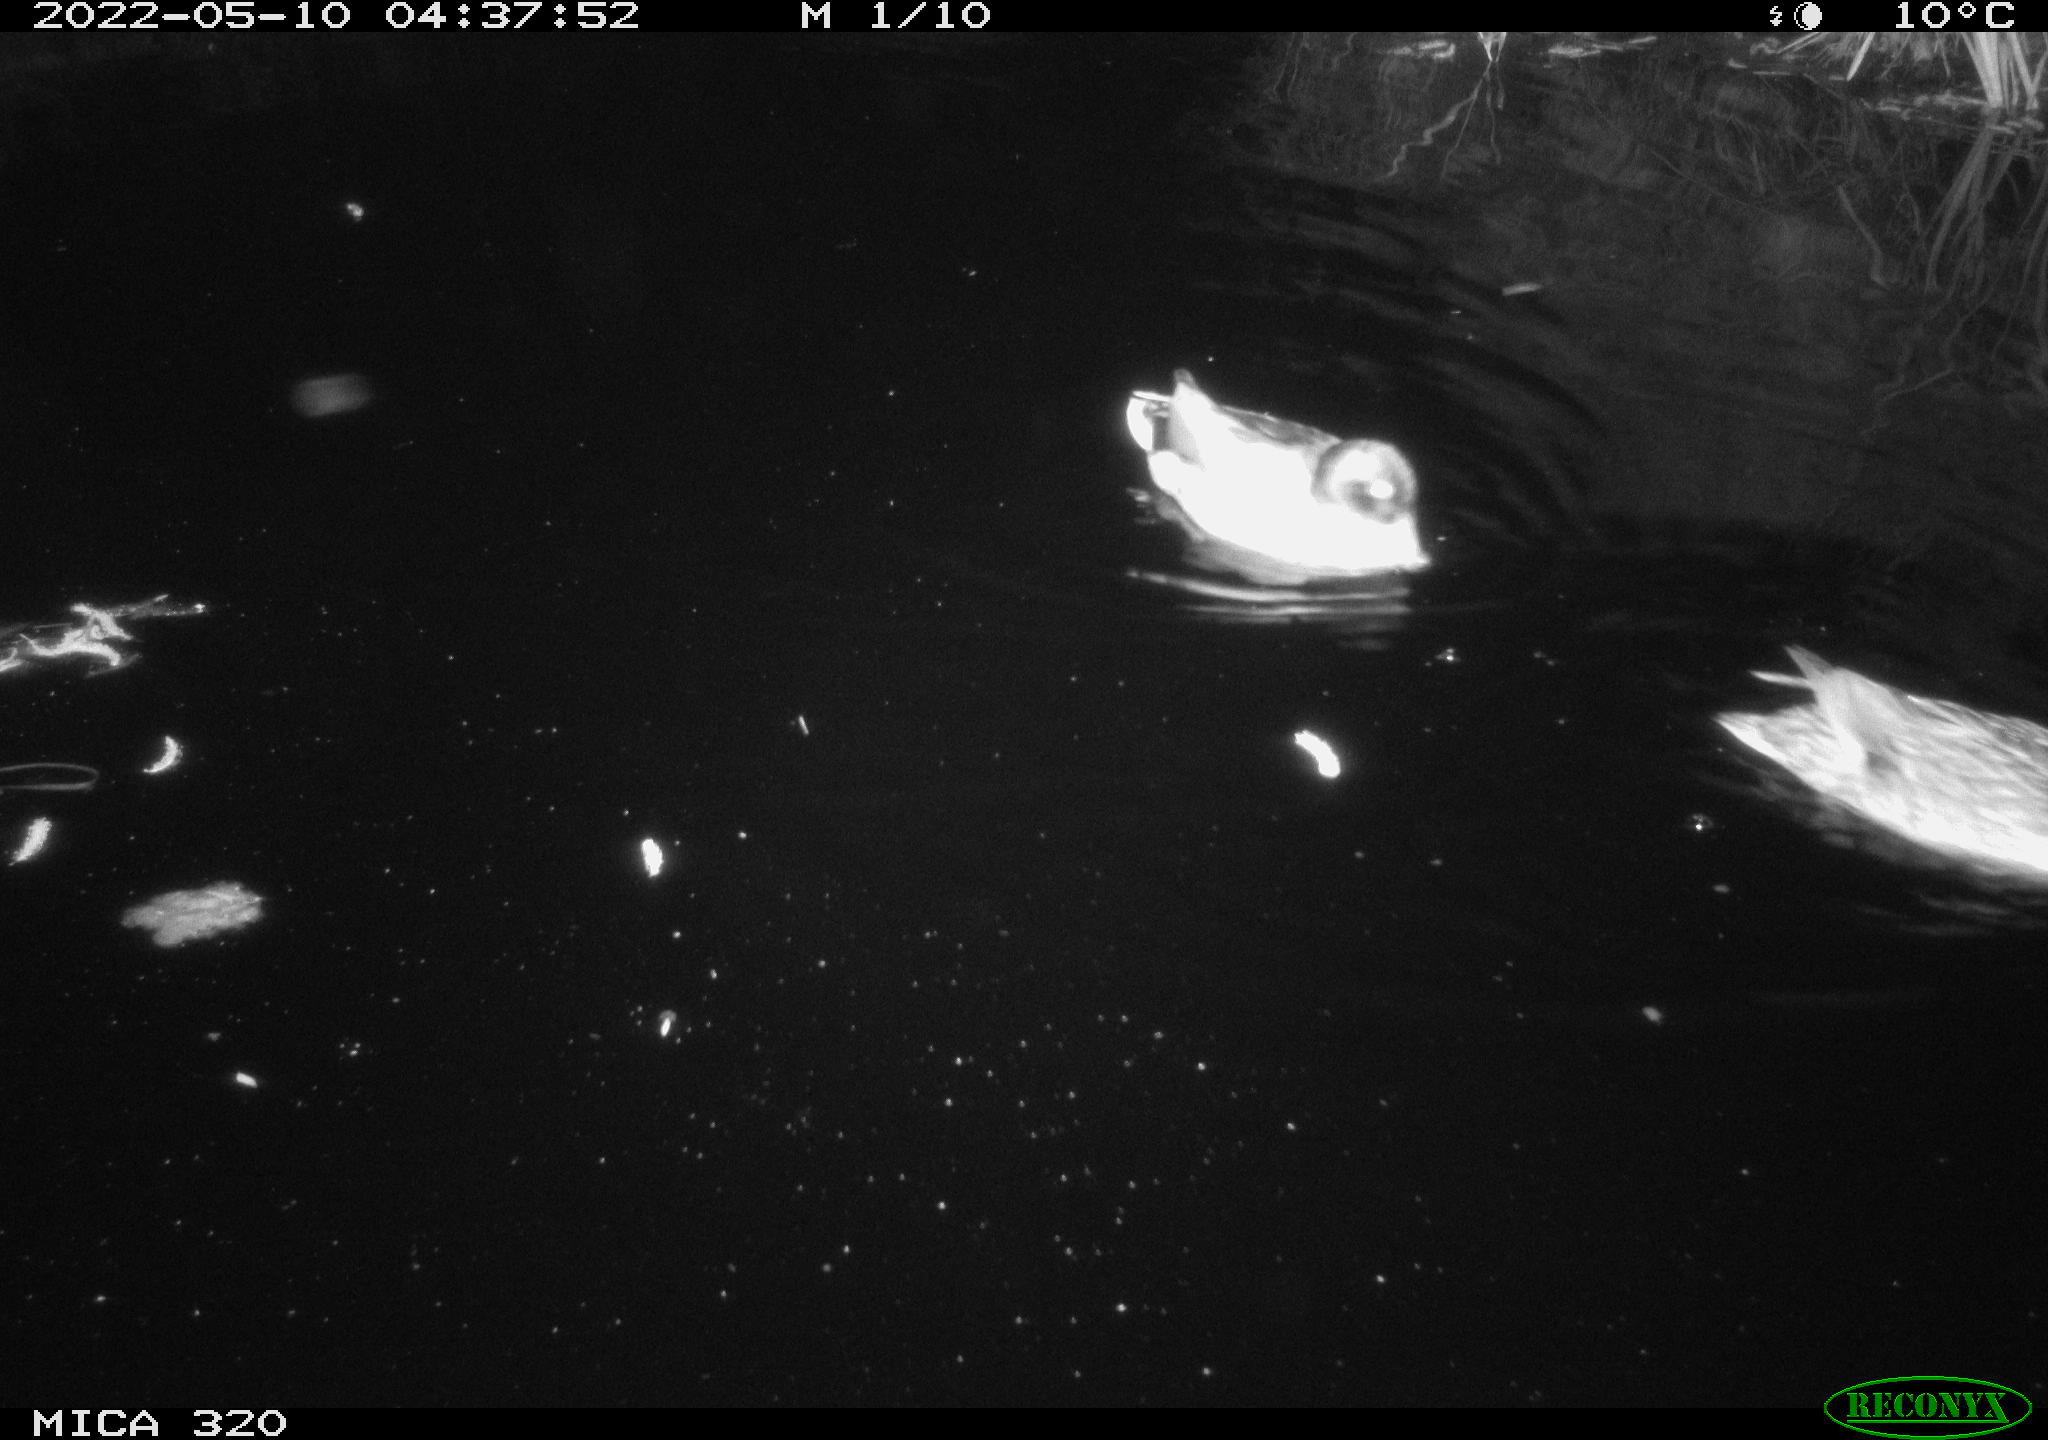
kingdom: Animalia
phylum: Chordata
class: Aves
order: Anseriformes
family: Anatidae
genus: Anas
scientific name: Anas platyrhynchos
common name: Mallard
